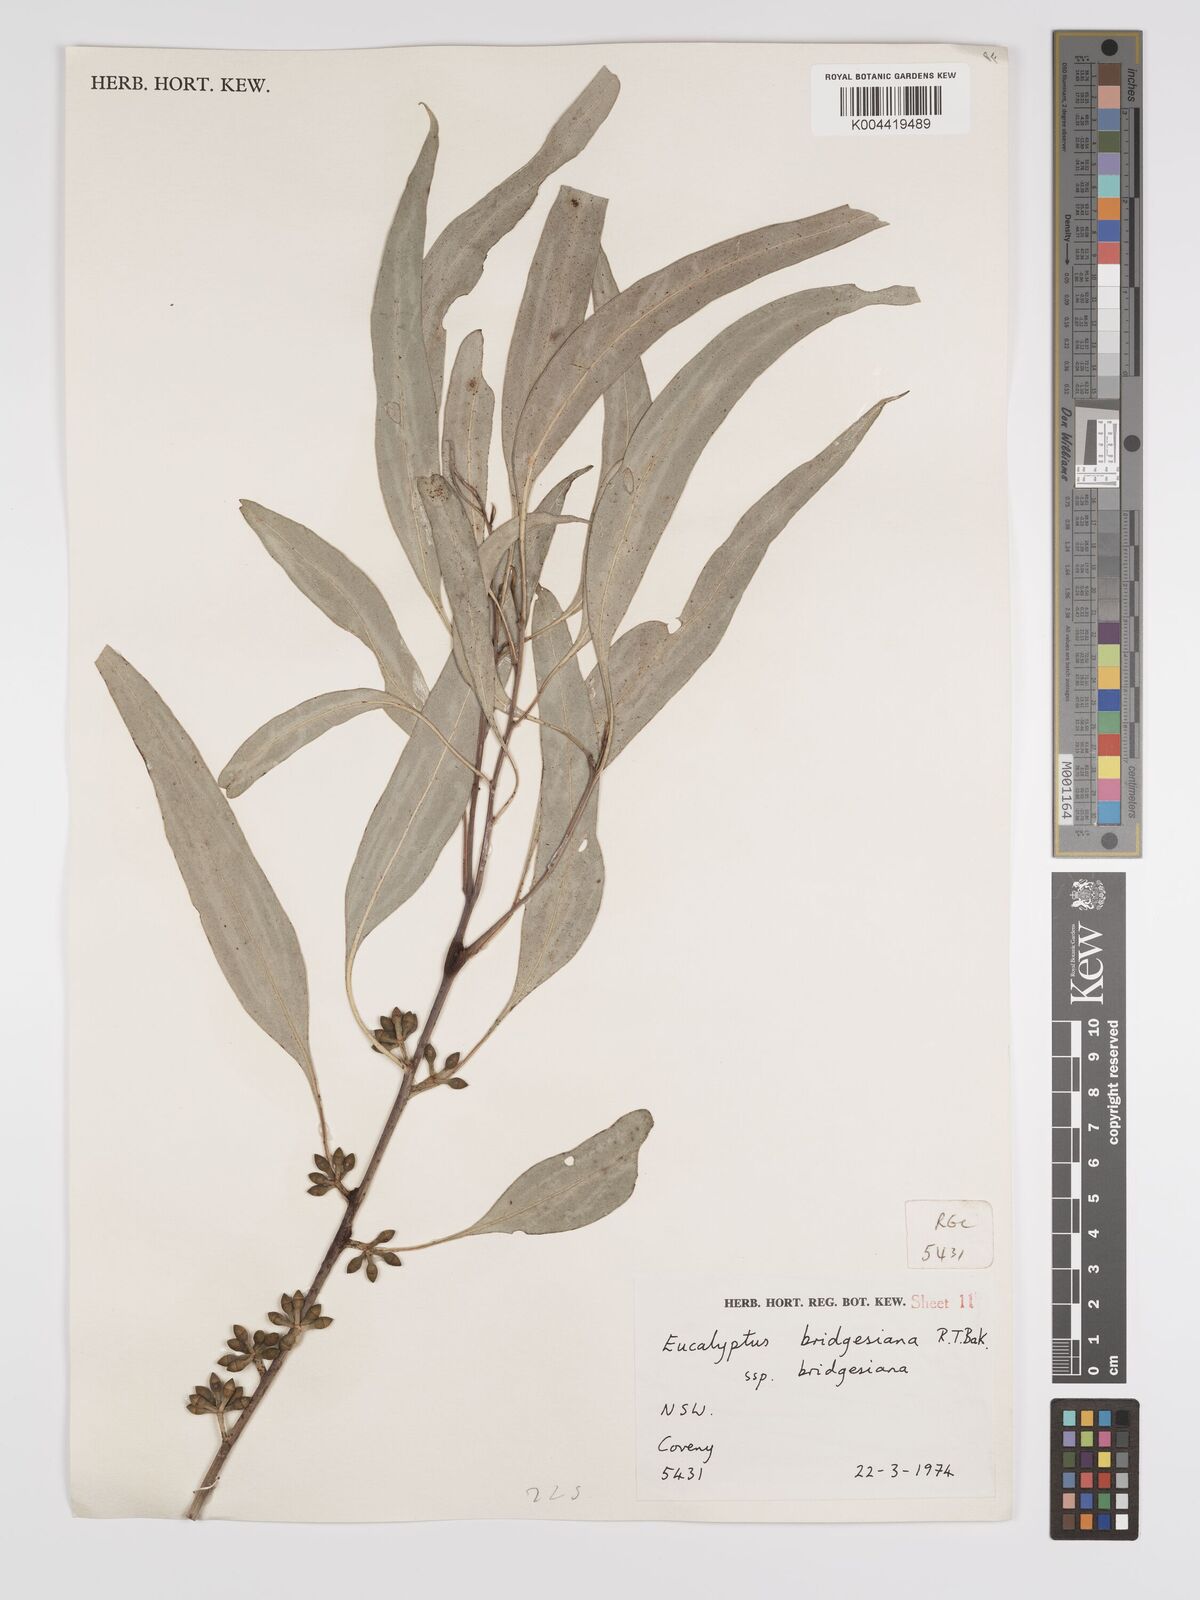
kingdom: Plantae
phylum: Tracheophyta
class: Magnoliopsida
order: Myrtales
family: Myrtaceae
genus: Eucalyptus
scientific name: Eucalyptus bridgesiana
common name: Applebox
